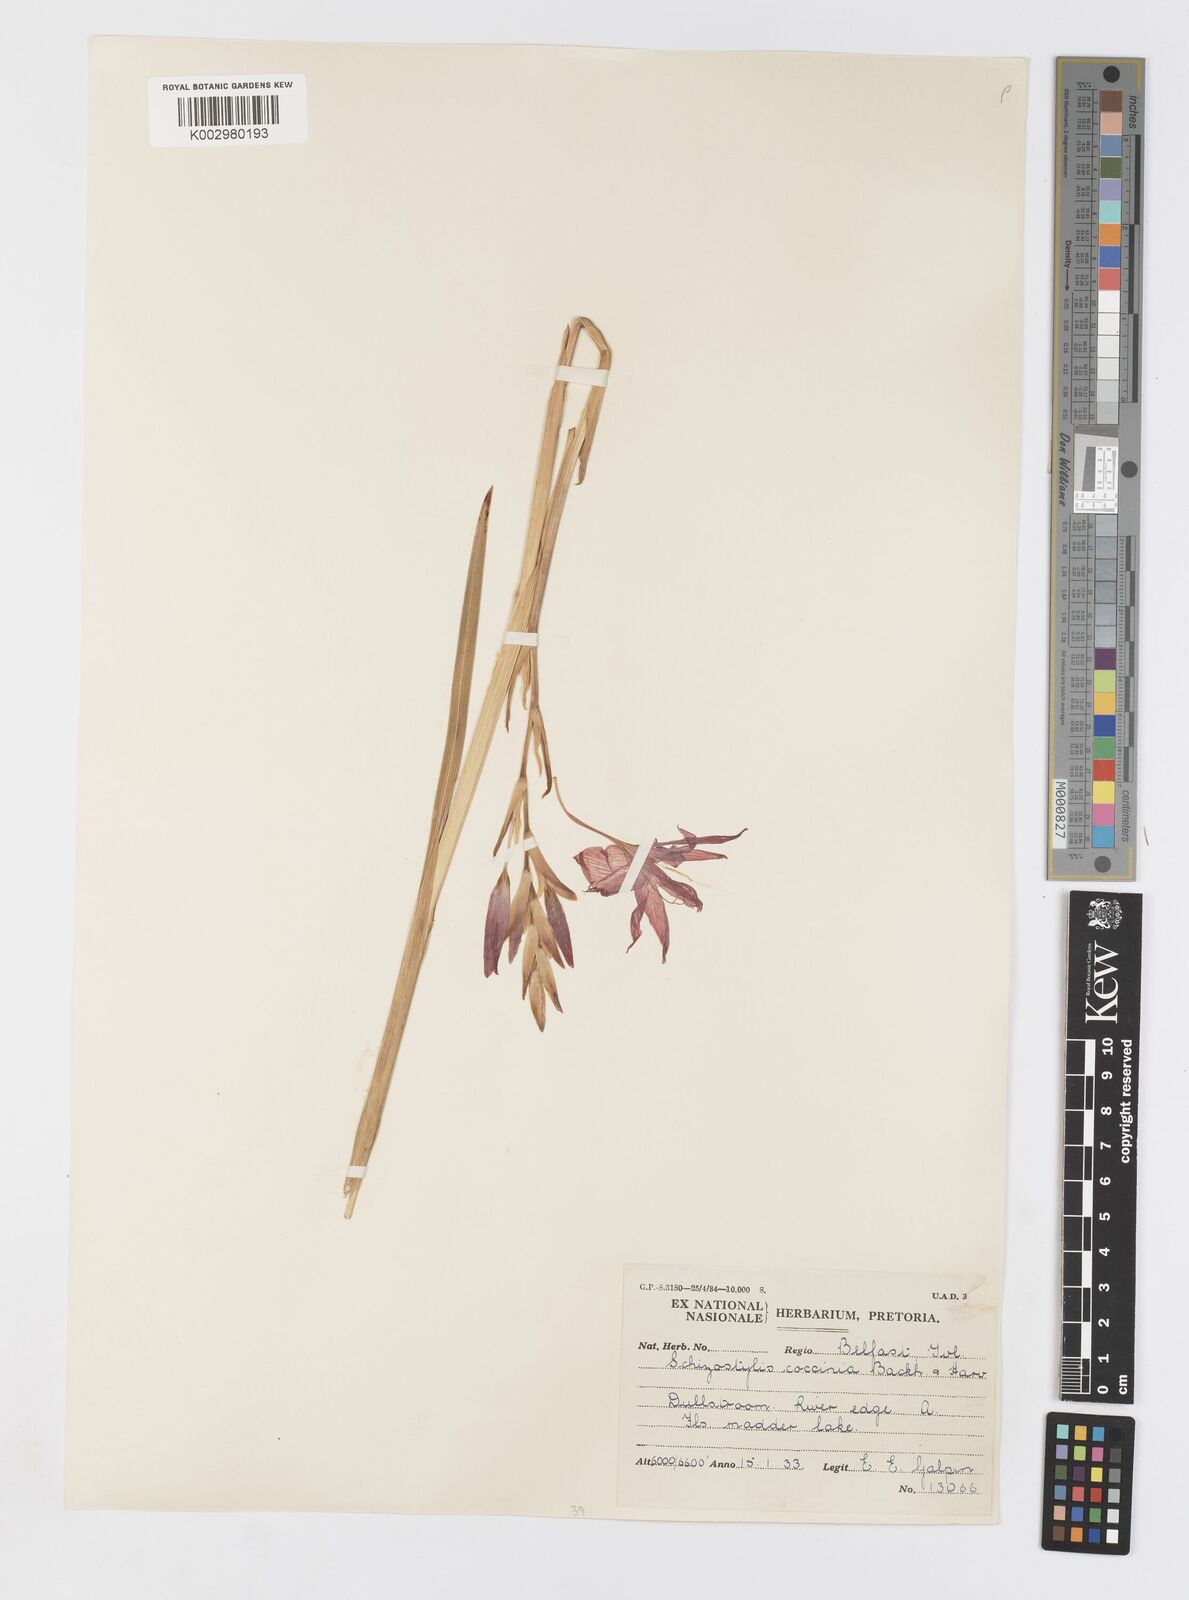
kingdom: Plantae
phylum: Tracheophyta
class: Liliopsida
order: Asparagales
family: Iridaceae
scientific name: Iridaceae
